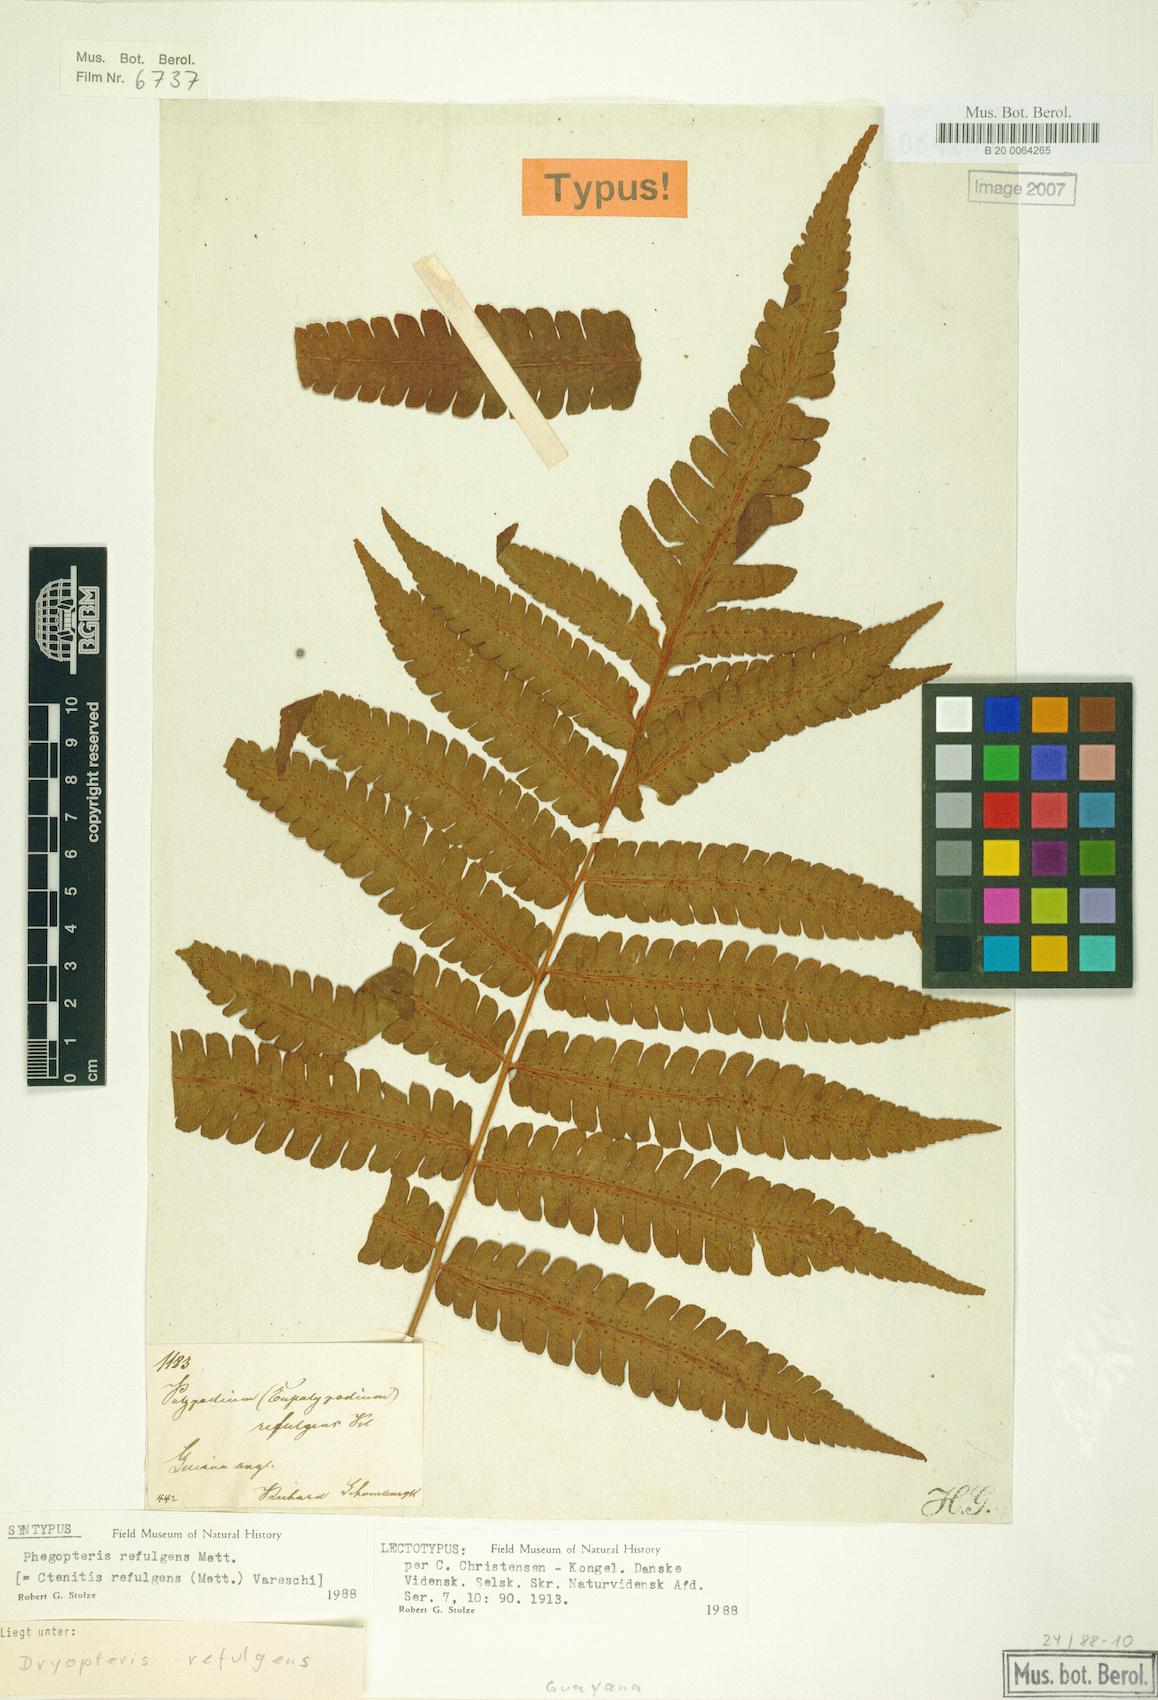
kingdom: Plantae
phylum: Tracheophyta
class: Polypodiopsida
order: Polypodiales
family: Dryopteridaceae
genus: Ctenitis
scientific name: Ctenitis refulgens
